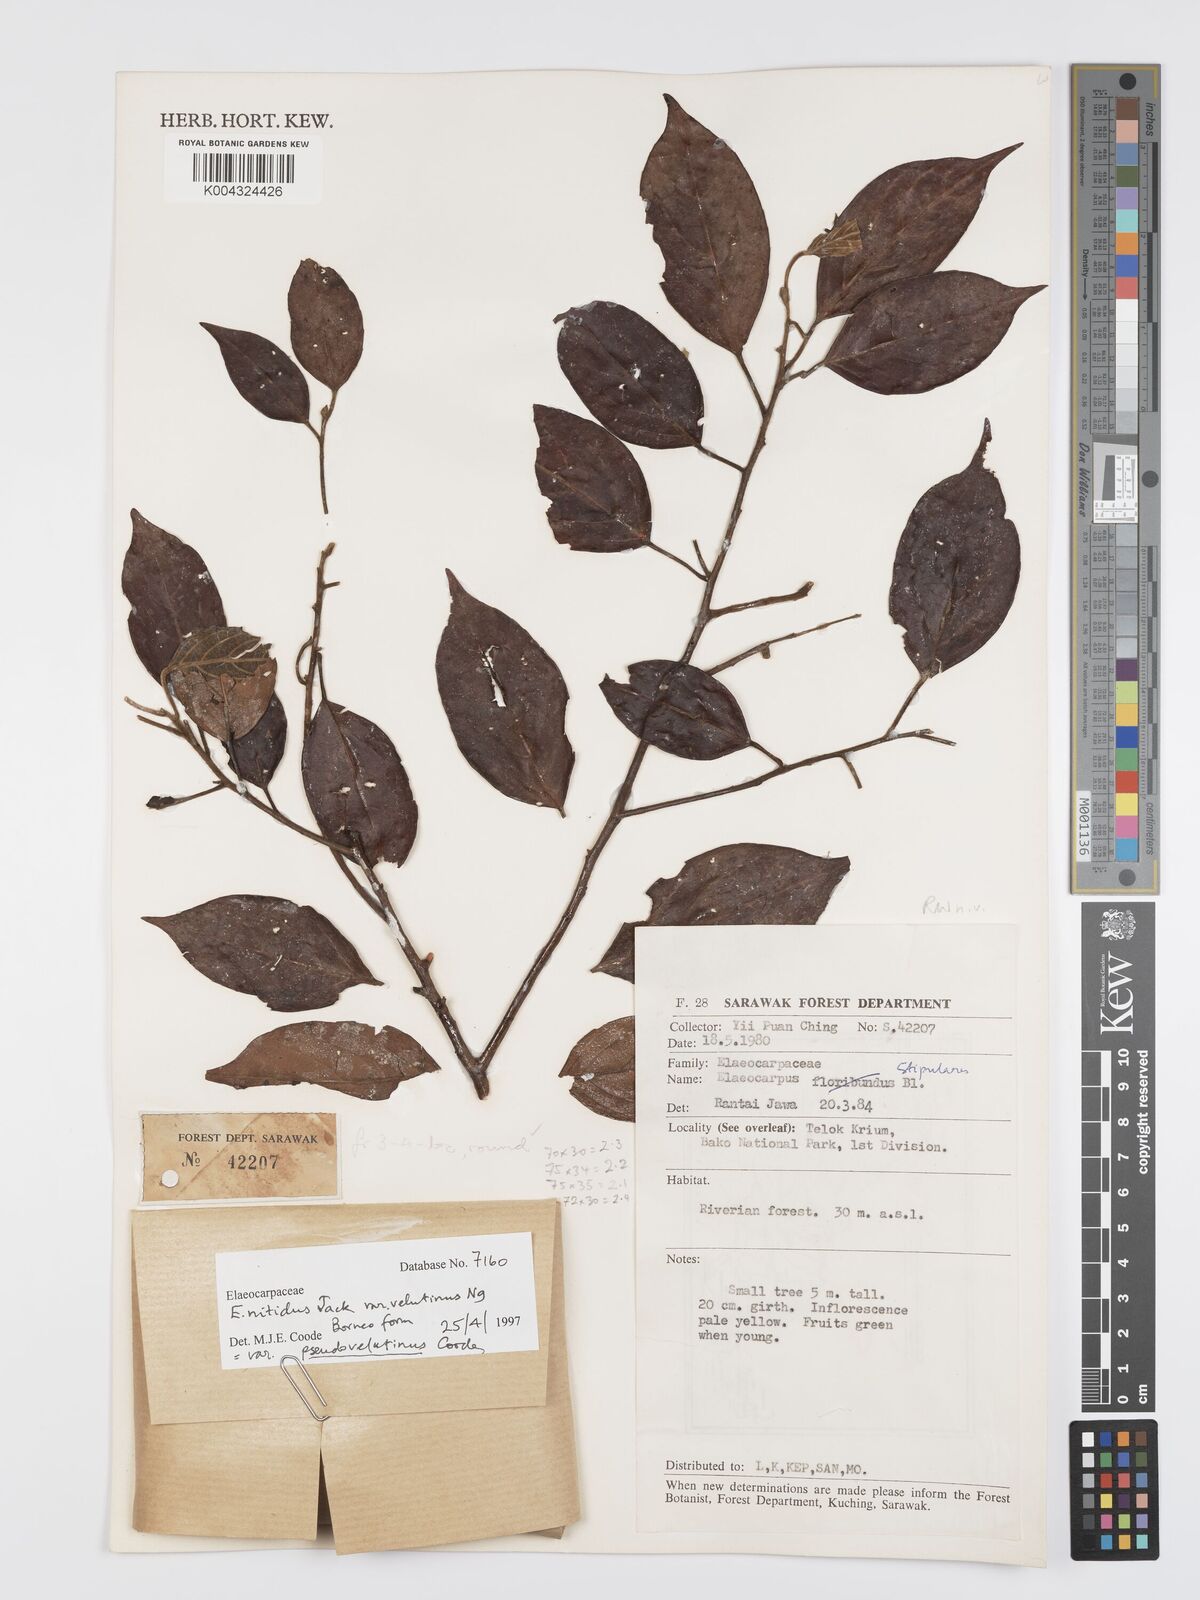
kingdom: Plantae
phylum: Tracheophyta
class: Magnoliopsida
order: Oxalidales
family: Elaeocarpaceae
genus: Elaeocarpus
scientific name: Elaeocarpus nitidus
